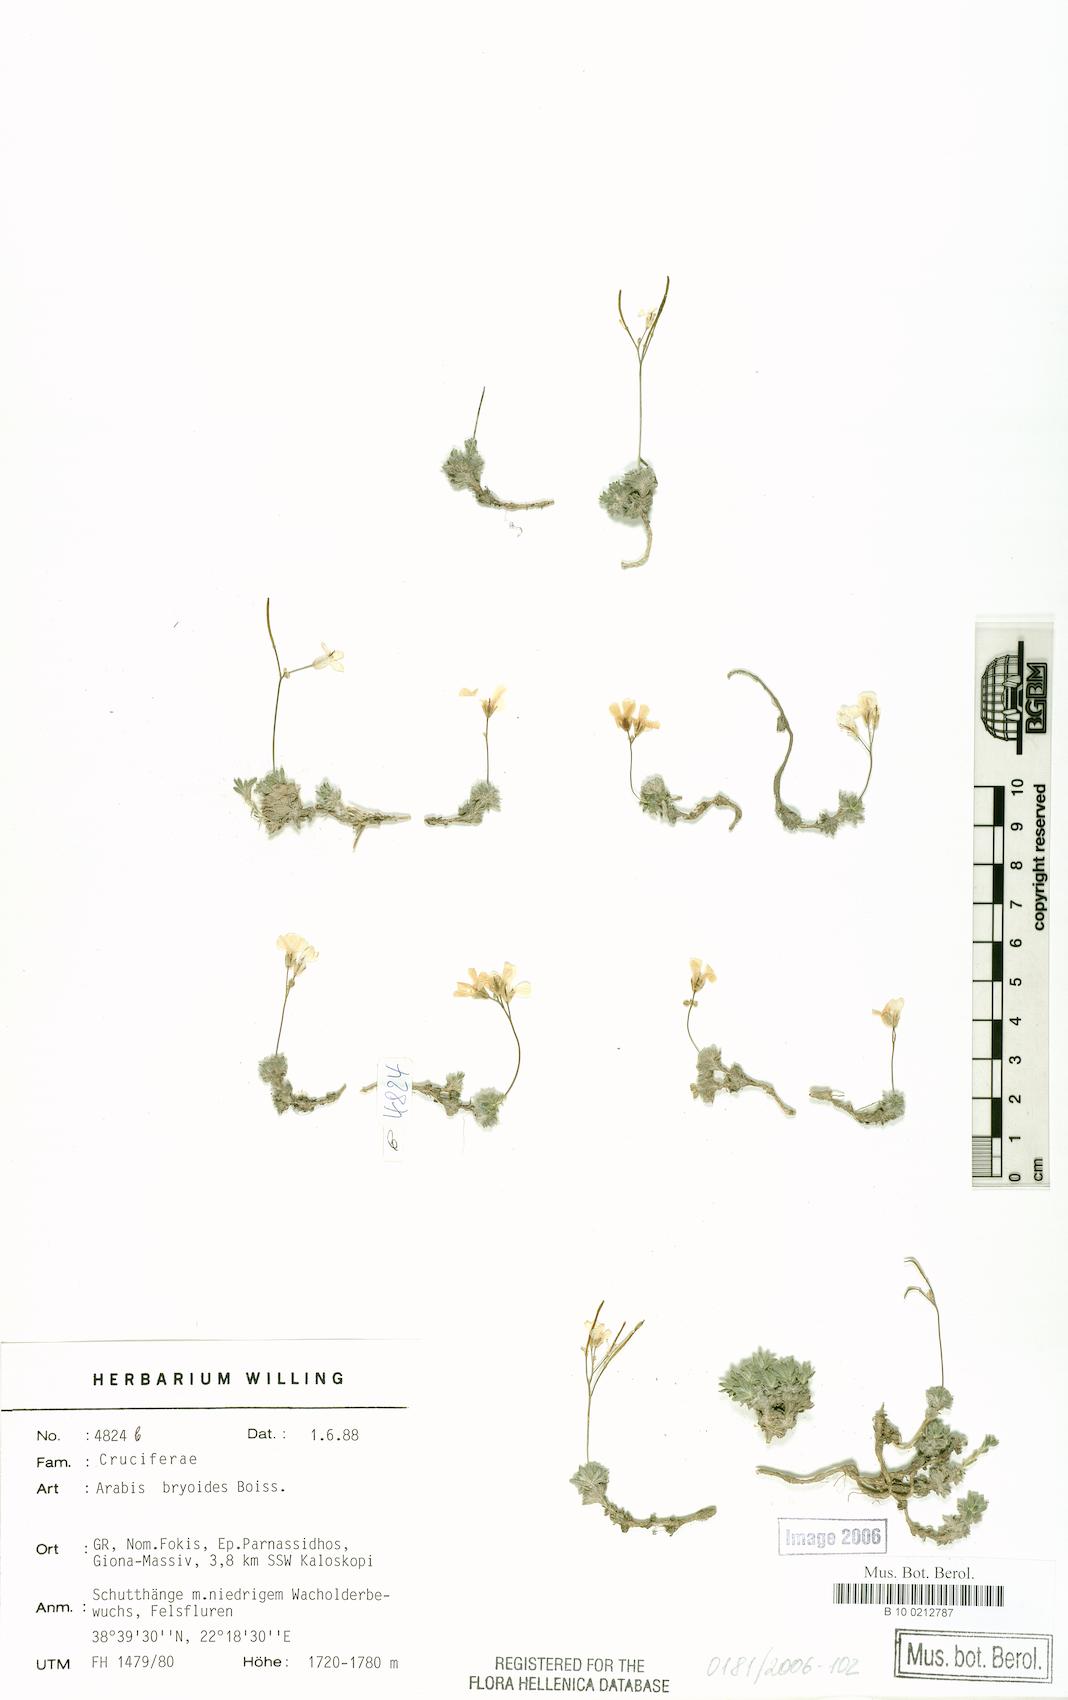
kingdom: Plantae
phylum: Tracheophyta
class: Magnoliopsida
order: Brassicales
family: Brassicaceae
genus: Arabis
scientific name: Arabis bryoides
